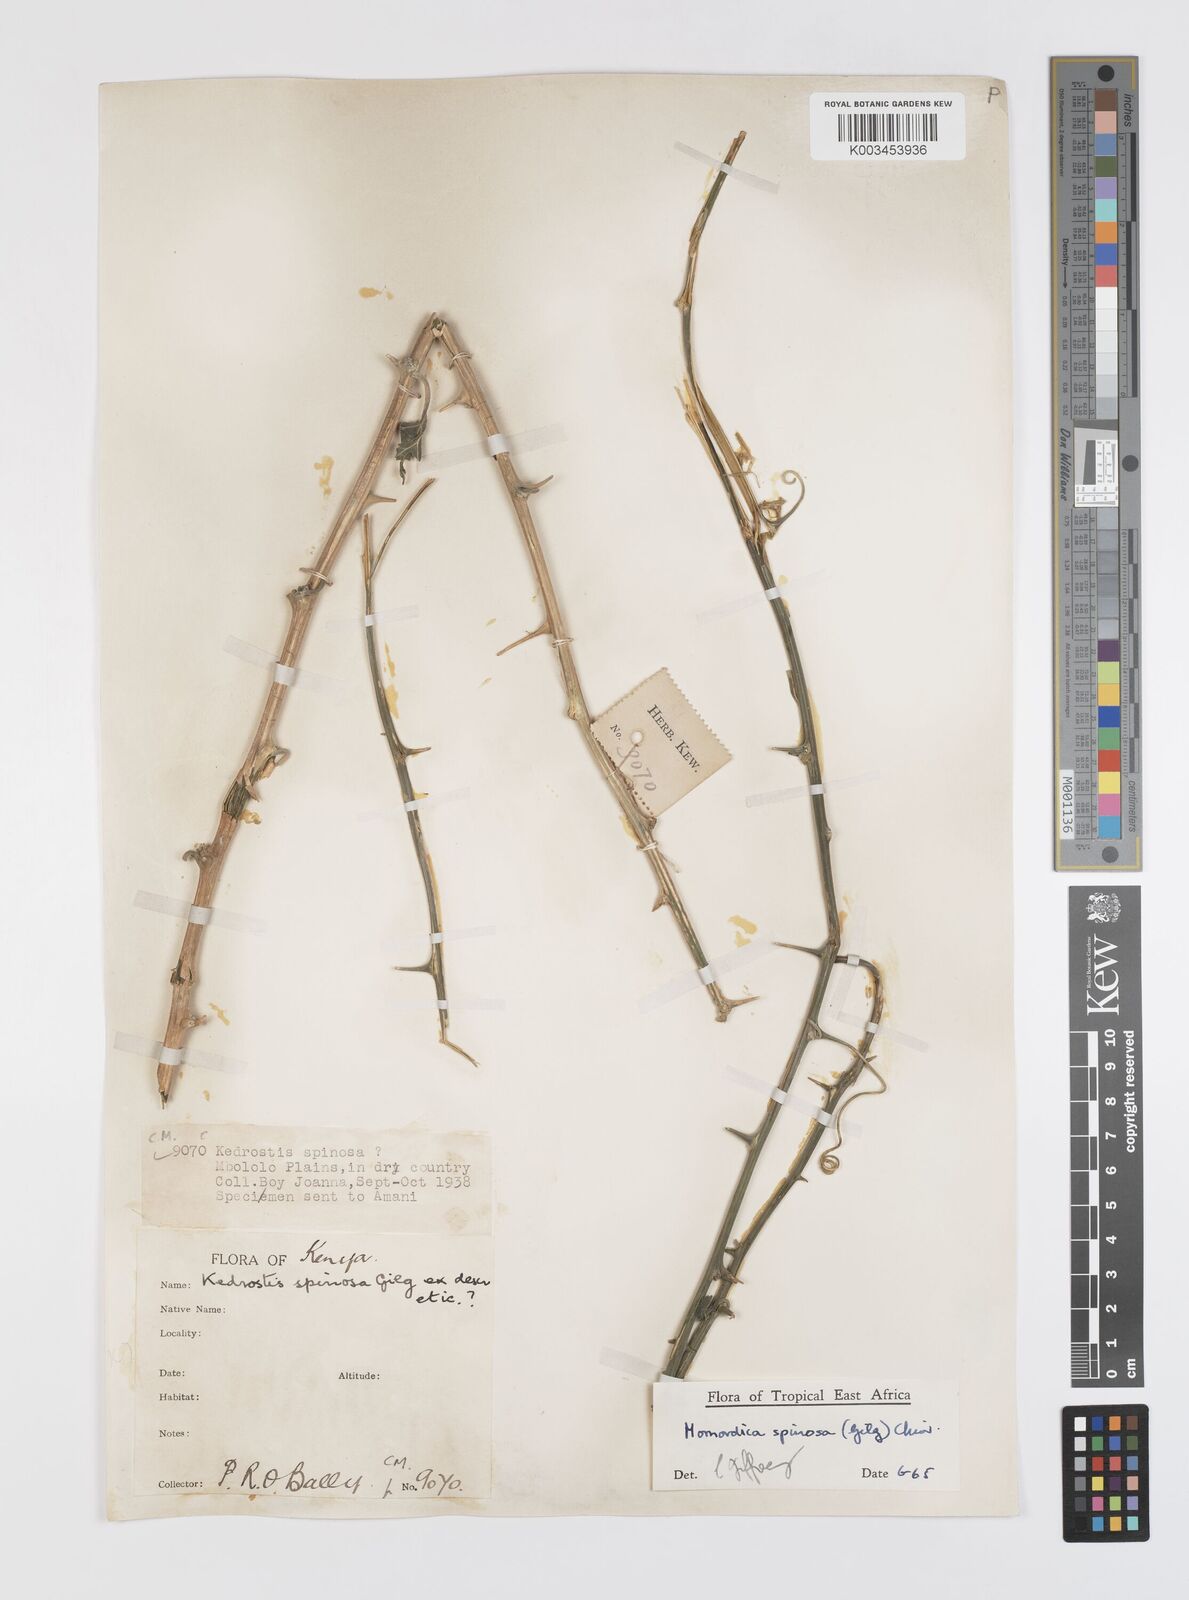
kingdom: Plantae
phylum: Tracheophyta
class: Magnoliopsida
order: Cucurbitales
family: Cucurbitaceae
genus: Momordica
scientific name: Momordica spinosa
